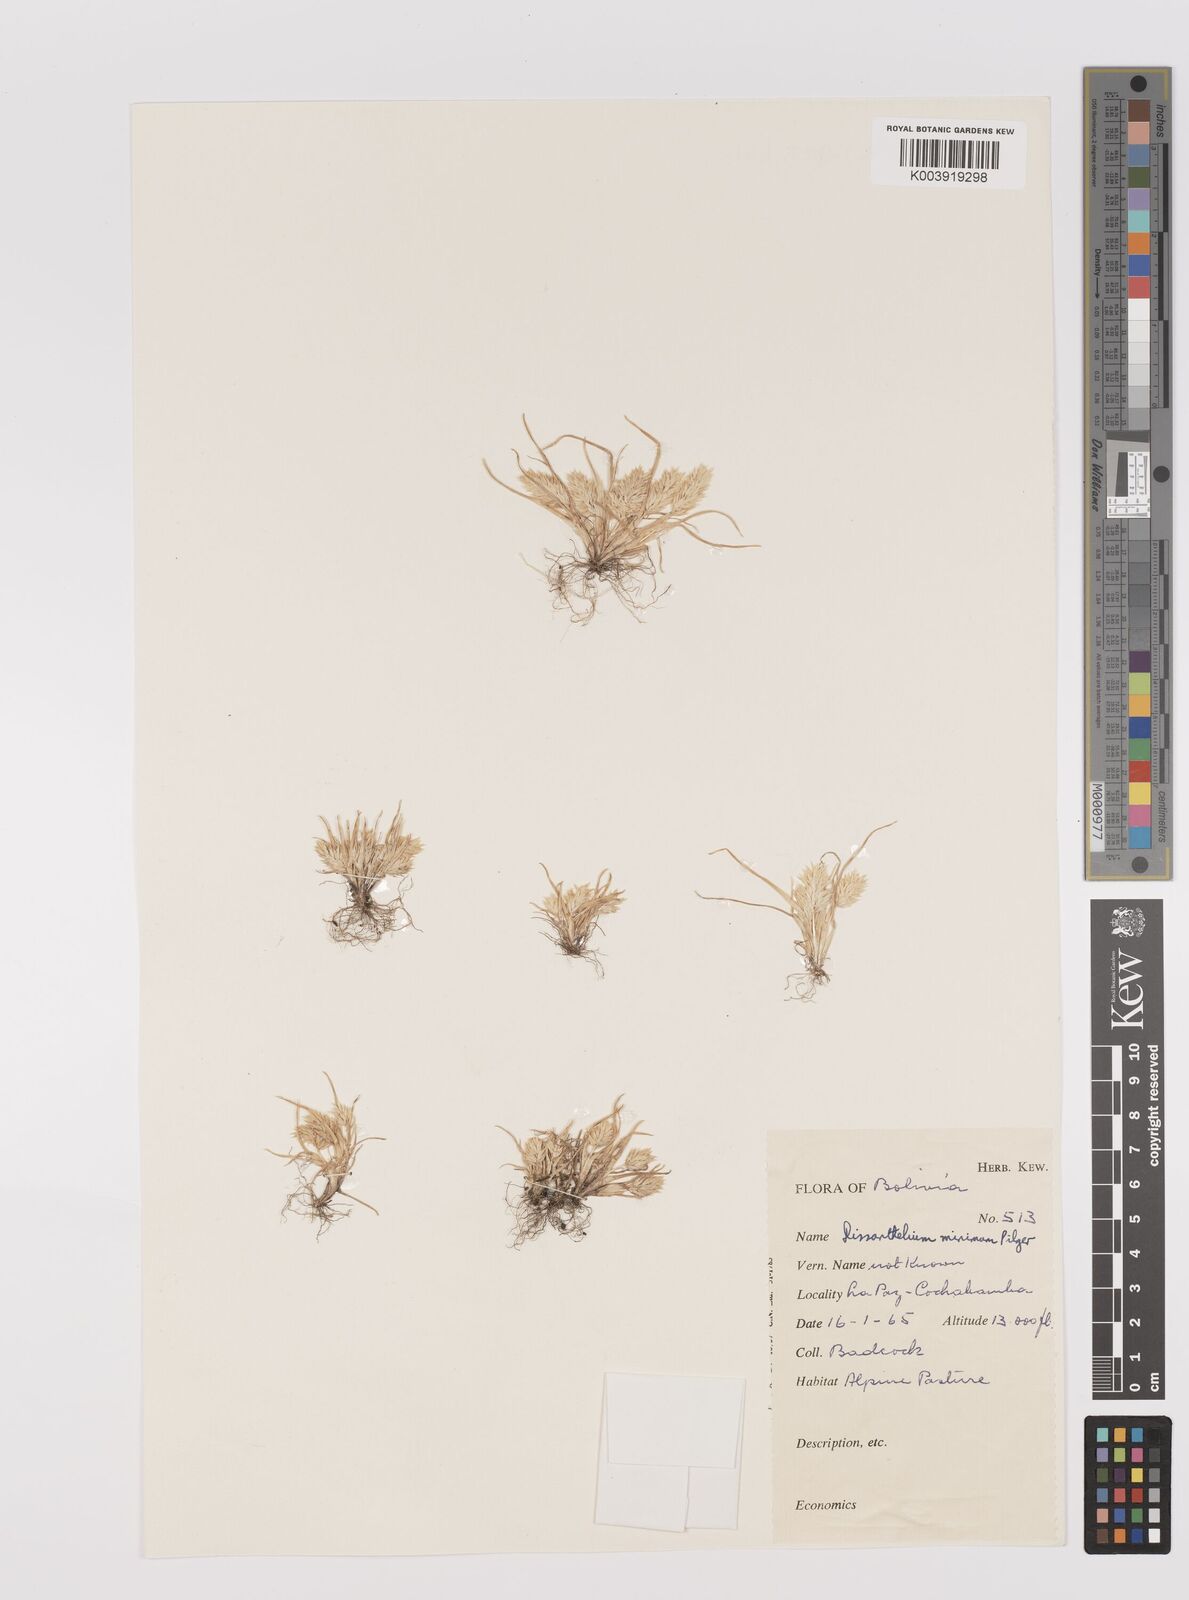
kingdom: Plantae
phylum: Tracheophyta
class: Liliopsida
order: Poales
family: Poaceae
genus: Poa
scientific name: Poa macusaniensis
